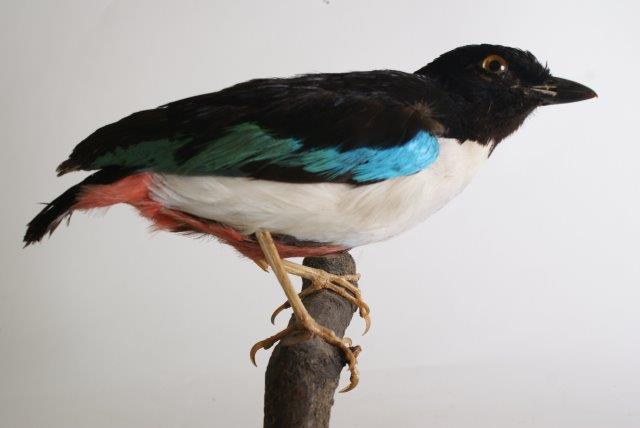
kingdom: Animalia
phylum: Chordata
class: Aves
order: Passeriformes
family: Pittidae
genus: Pitta
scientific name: Pitta maxima
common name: Ivory-breasted pitta
